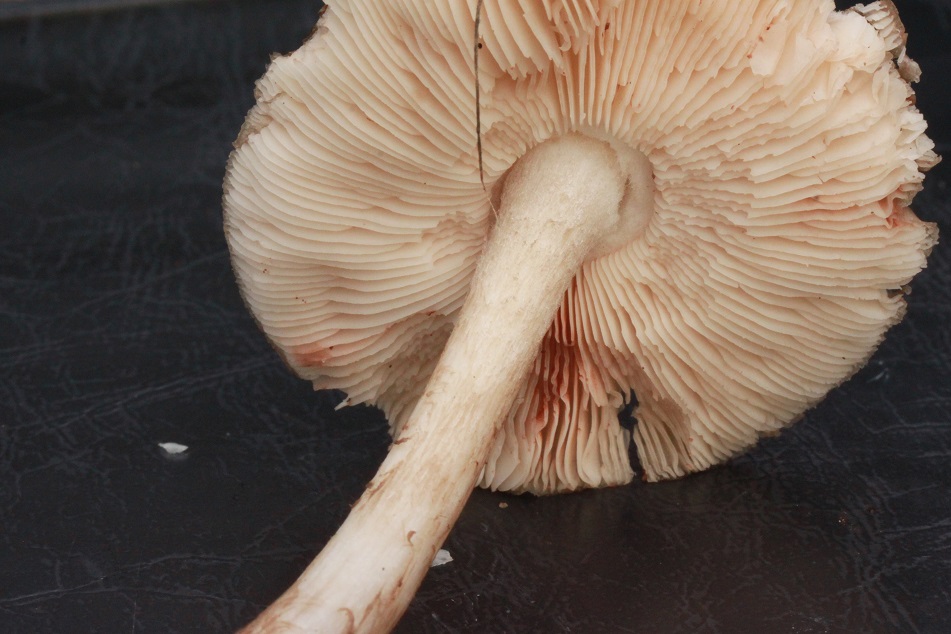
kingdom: Fungi
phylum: Basidiomycota
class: Agaricomycetes
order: Agaricales
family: Pluteaceae
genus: Pluteus
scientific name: Pluteus cervinus
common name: sodfarvet skærmhat
